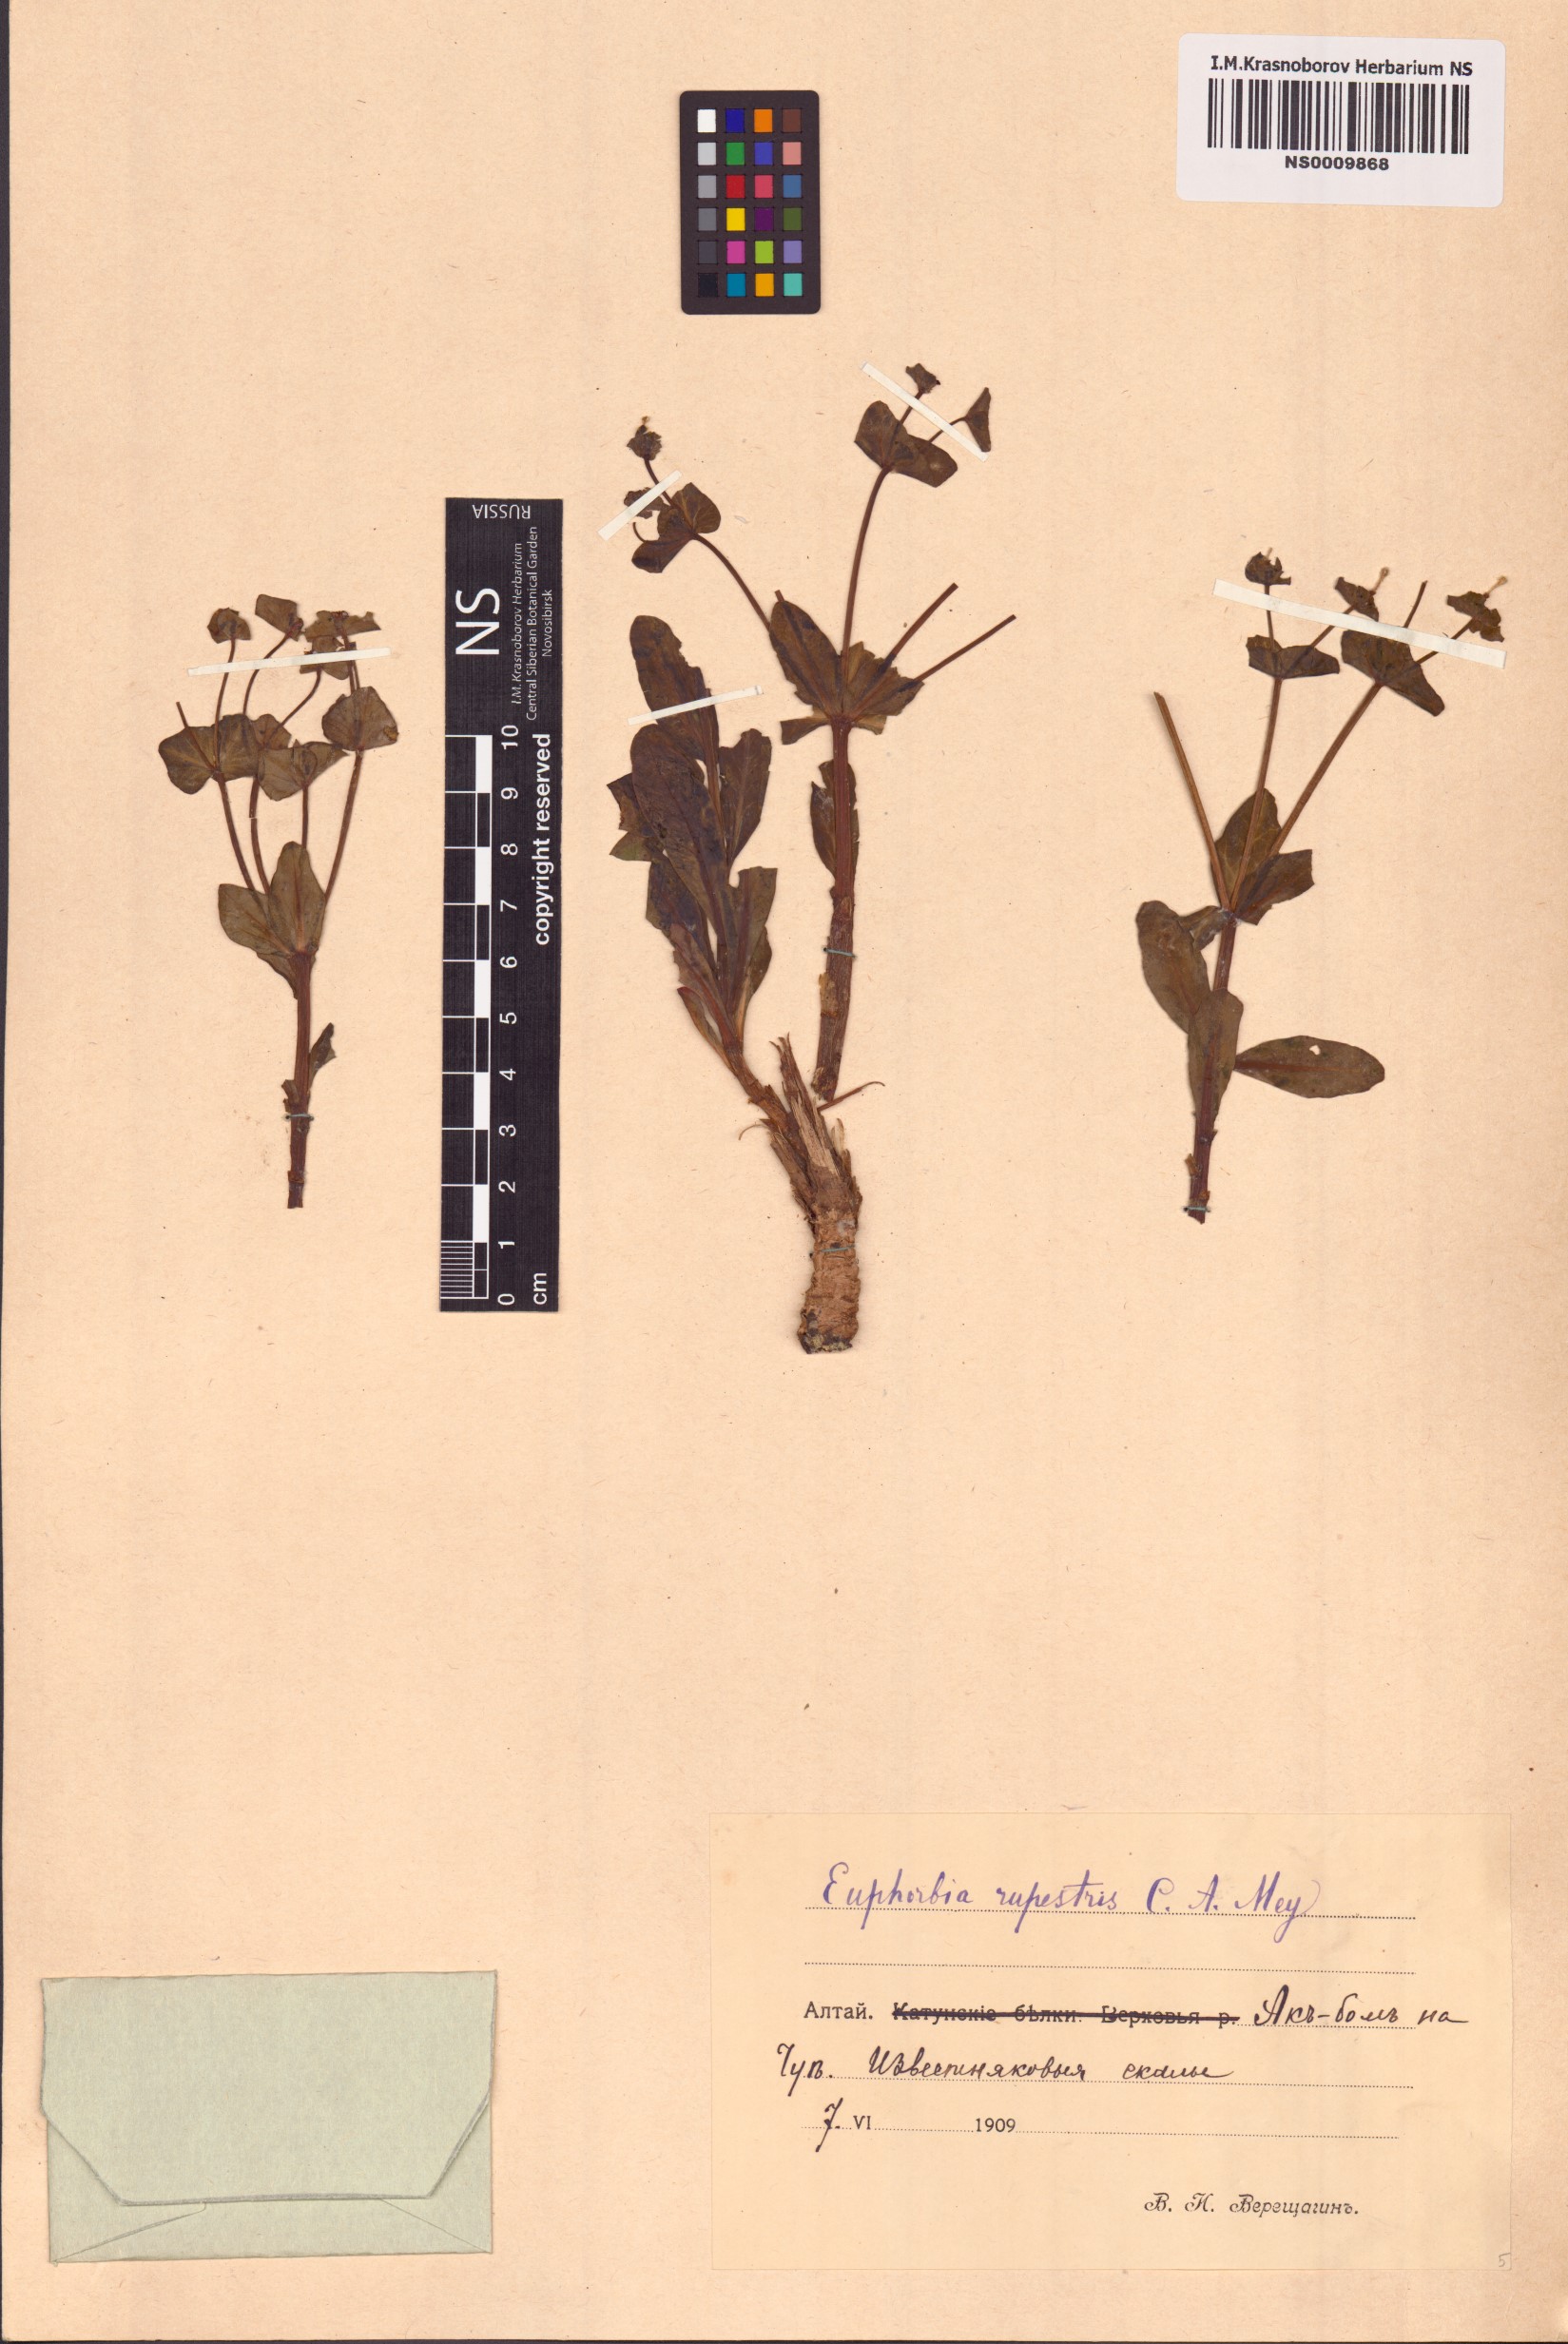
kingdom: Plantae
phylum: Tracheophyta
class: Magnoliopsida
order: Malpighiales
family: Euphorbiaceae
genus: Euphorbia
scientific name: Euphorbia rupestris
